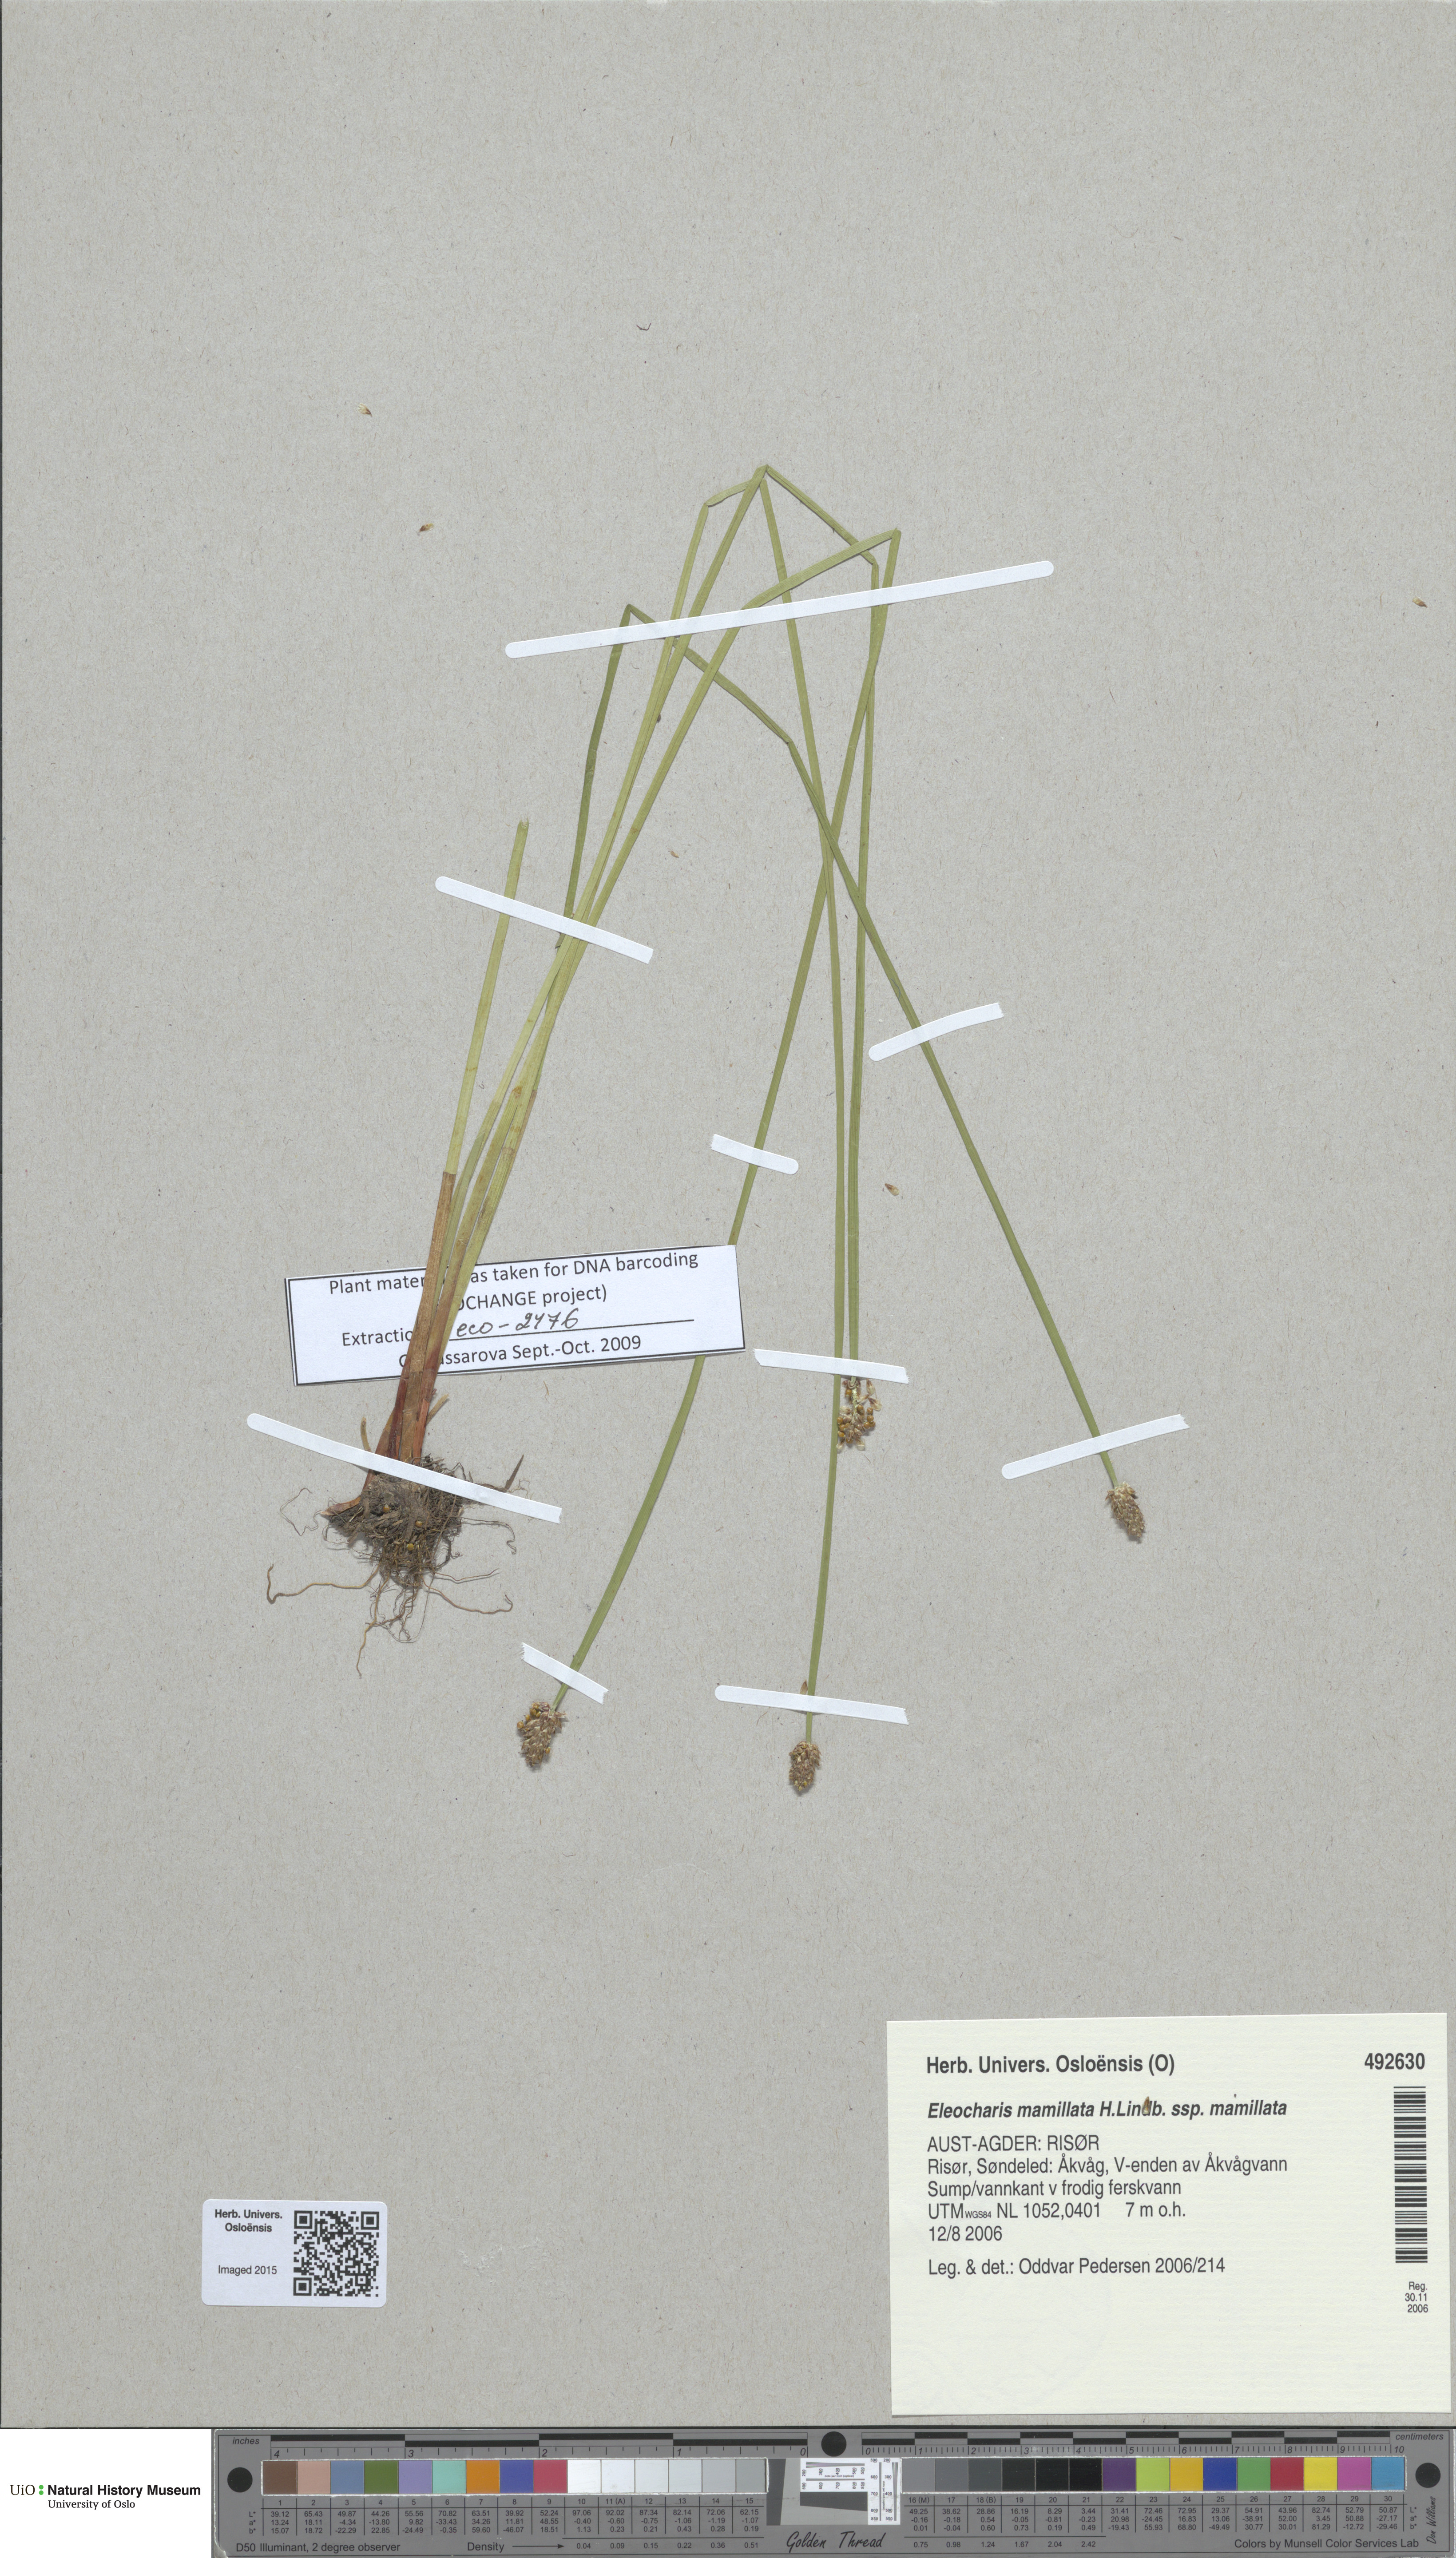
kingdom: Plantae
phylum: Tracheophyta
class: Liliopsida
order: Poales
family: Cyperaceae
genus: Eleocharis
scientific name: Eleocharis mamillata
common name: Northern spike-rush
